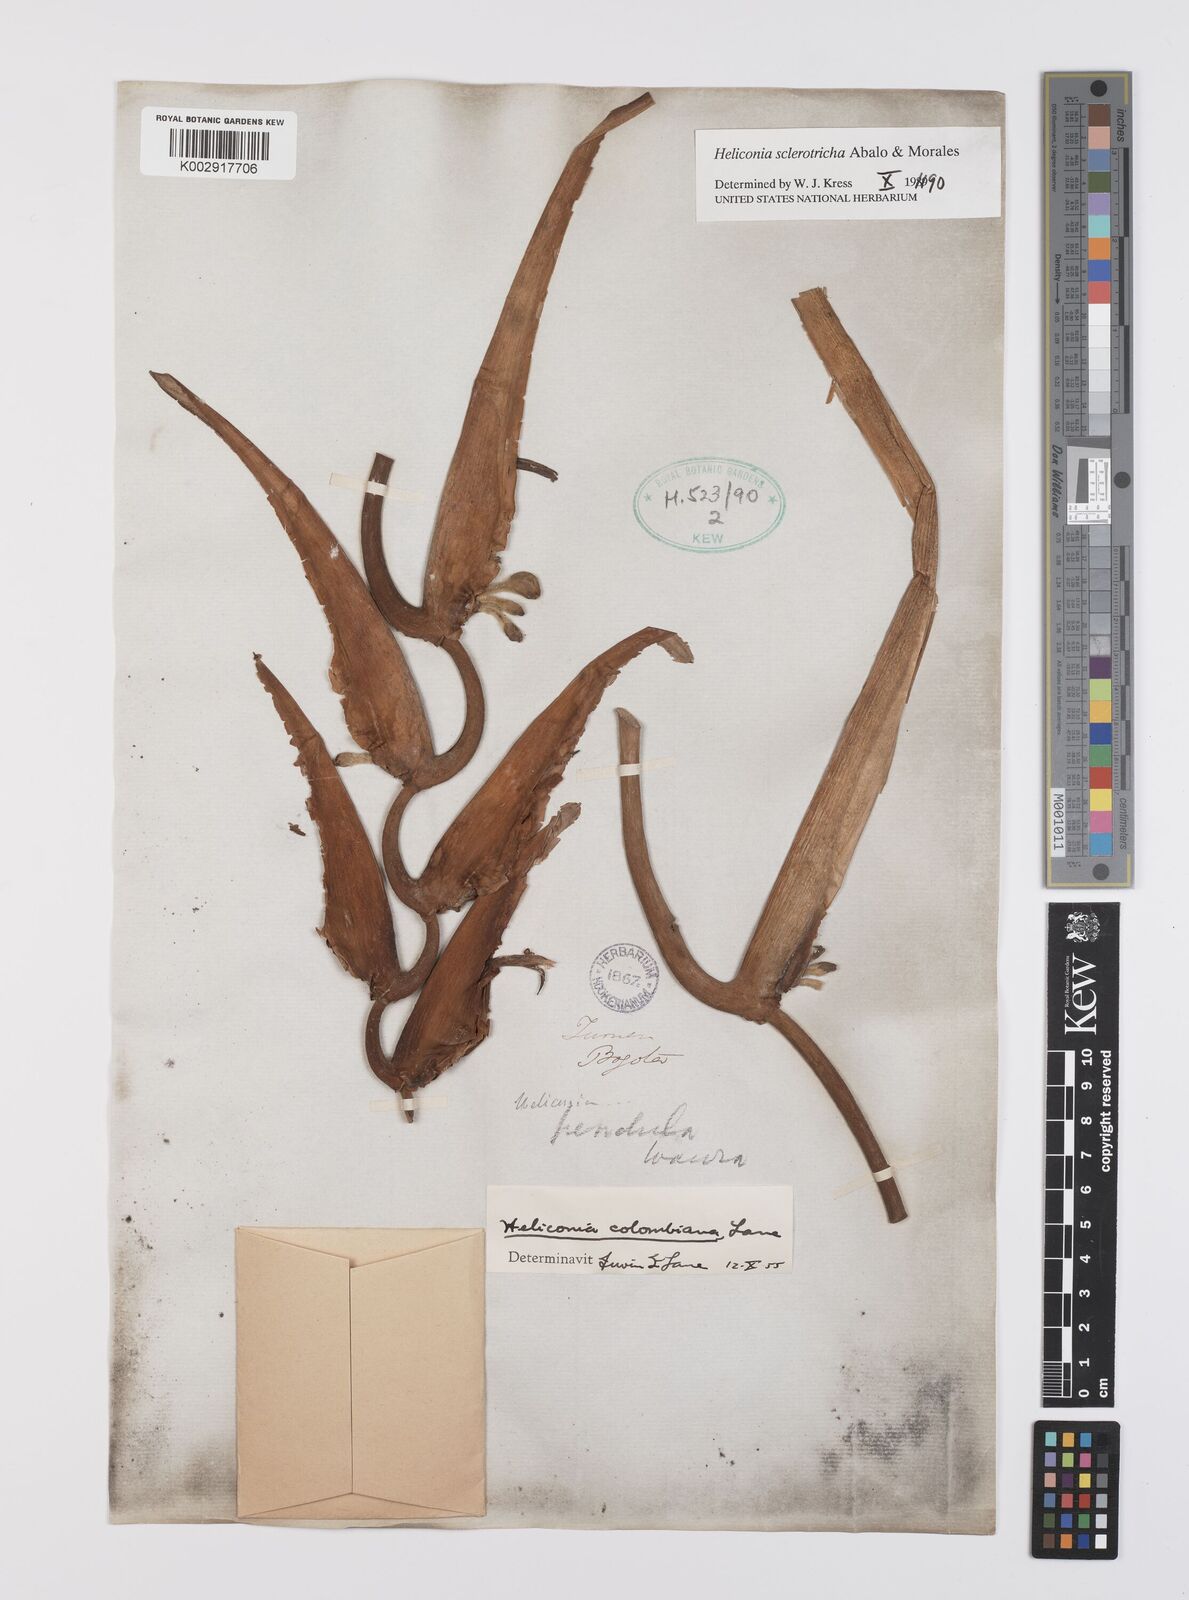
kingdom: Plantae
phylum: Tracheophyta
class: Liliopsida
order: Zingiberales
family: Heliconiaceae
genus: Heliconia
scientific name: Heliconia sclerotricha
